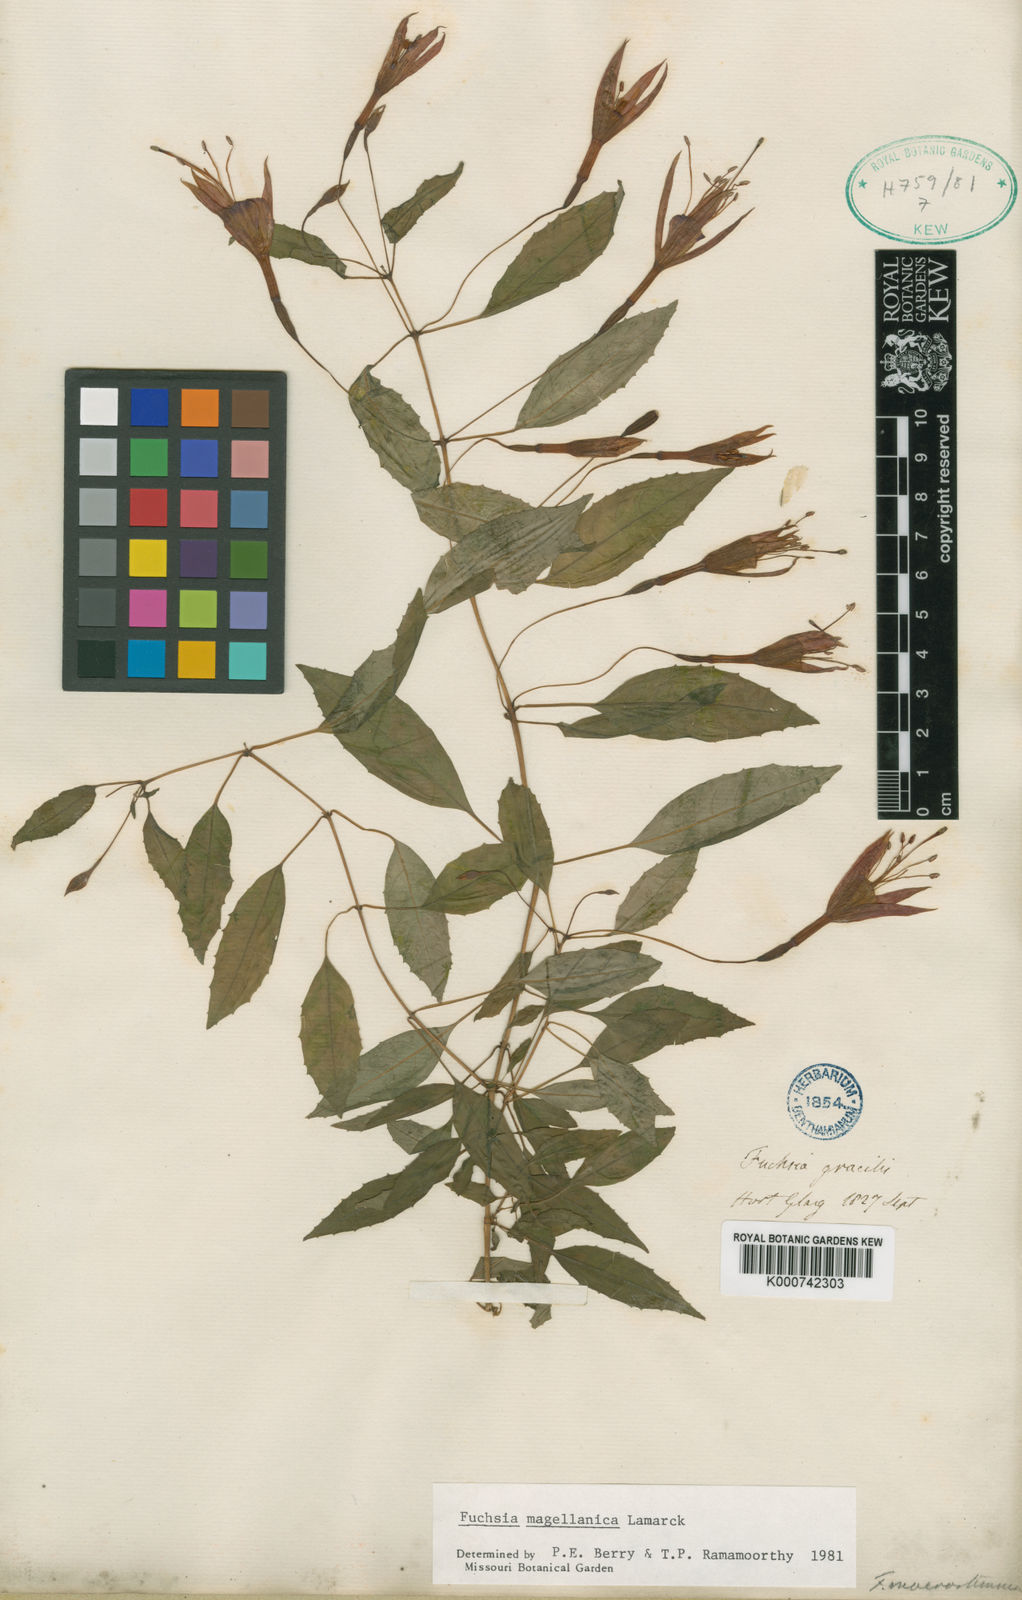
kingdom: Plantae
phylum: Tracheophyta
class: Magnoliopsida
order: Myrtales
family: Onagraceae
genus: Fuchsia
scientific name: Fuchsia magellanica
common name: Hardy fuchsia
